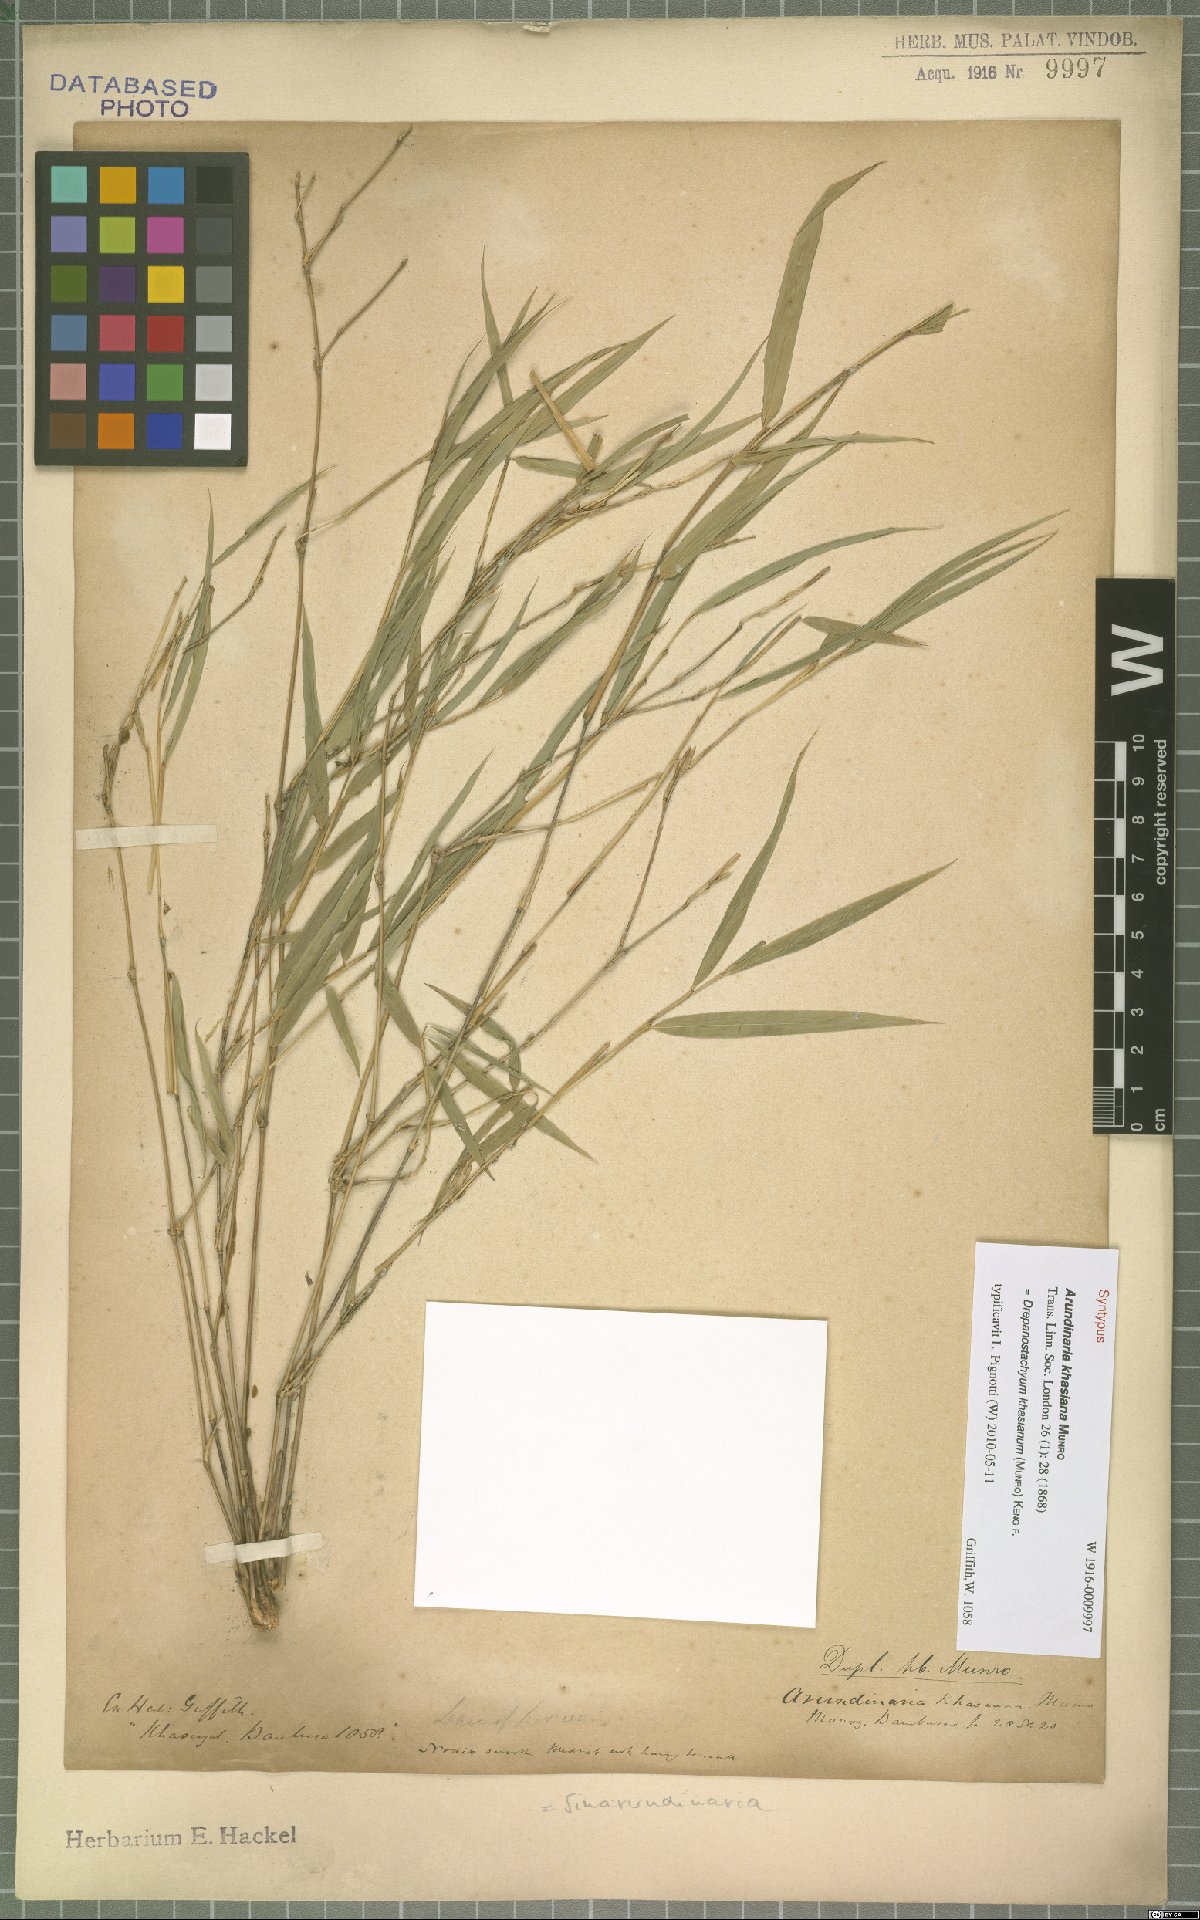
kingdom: Plantae
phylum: Tracheophyta
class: Liliopsida
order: Poales
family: Poaceae
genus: Drepanostachyum
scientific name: Drepanostachyum khasianum
